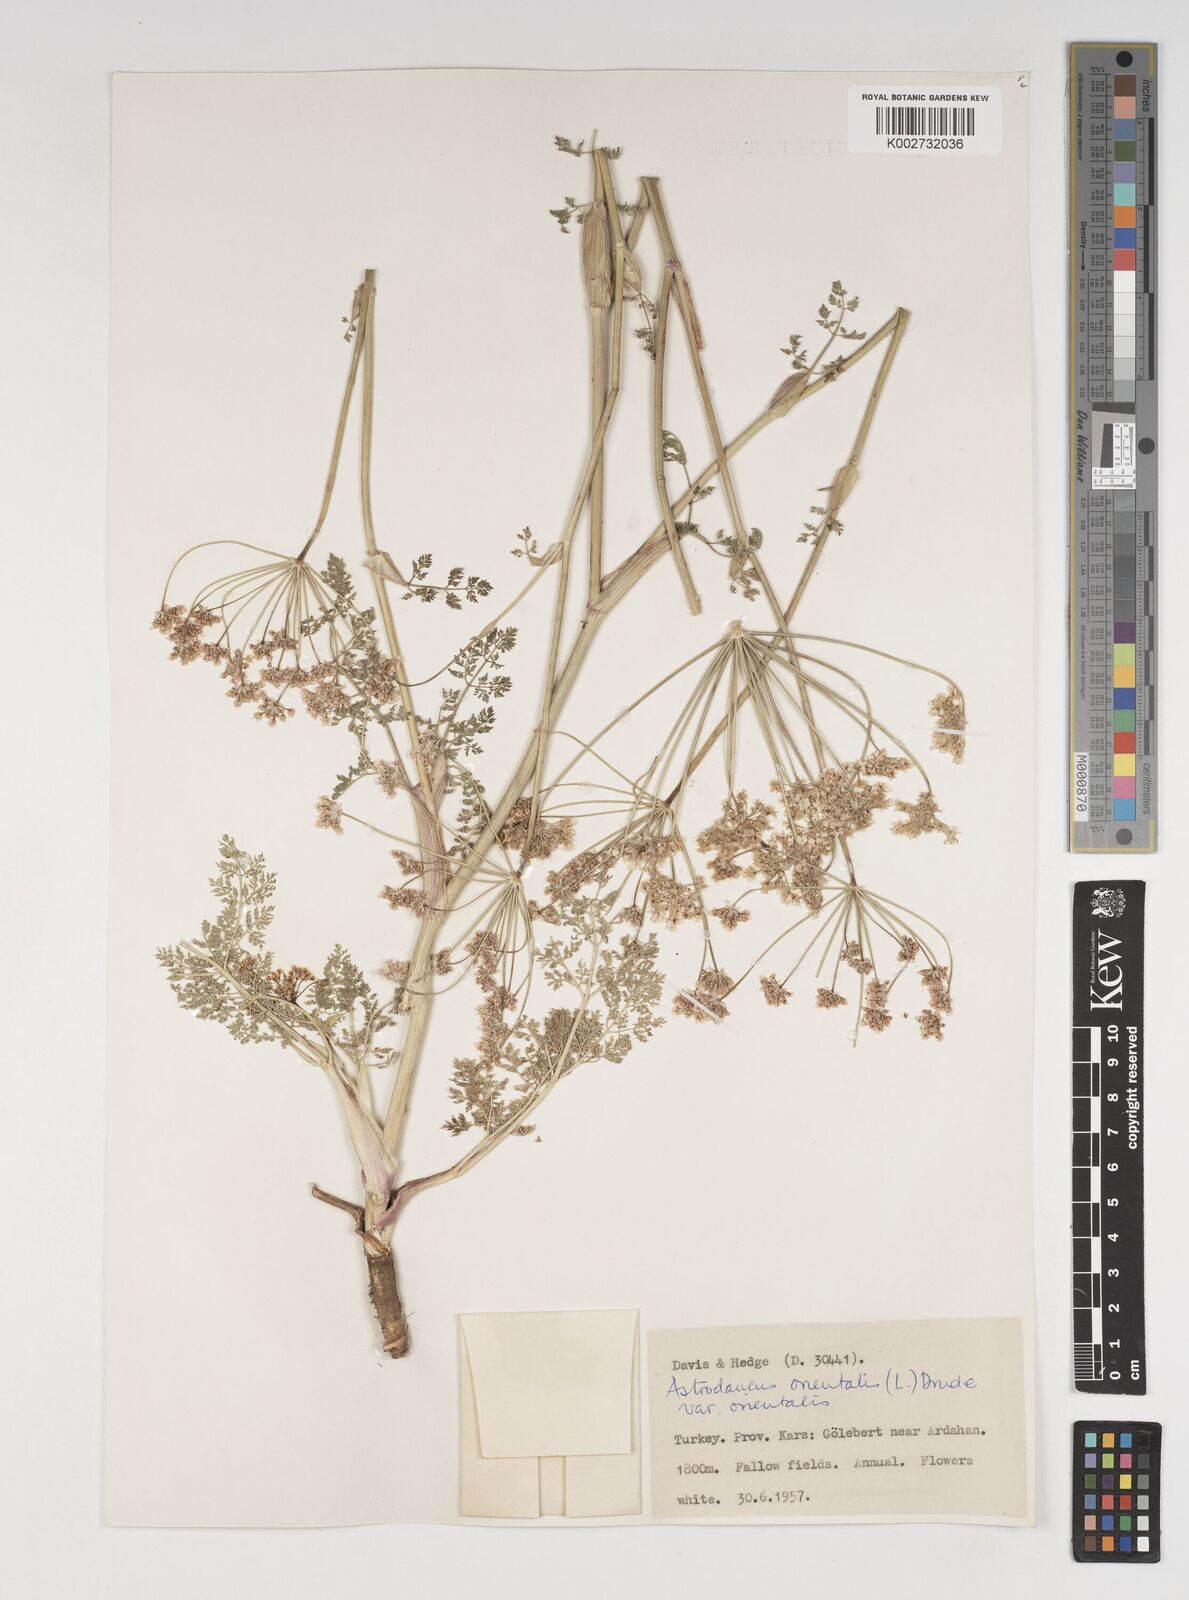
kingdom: Plantae
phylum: Tracheophyta
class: Magnoliopsida
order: Apiales
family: Apiaceae
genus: Astrodaucus
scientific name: Astrodaucus
